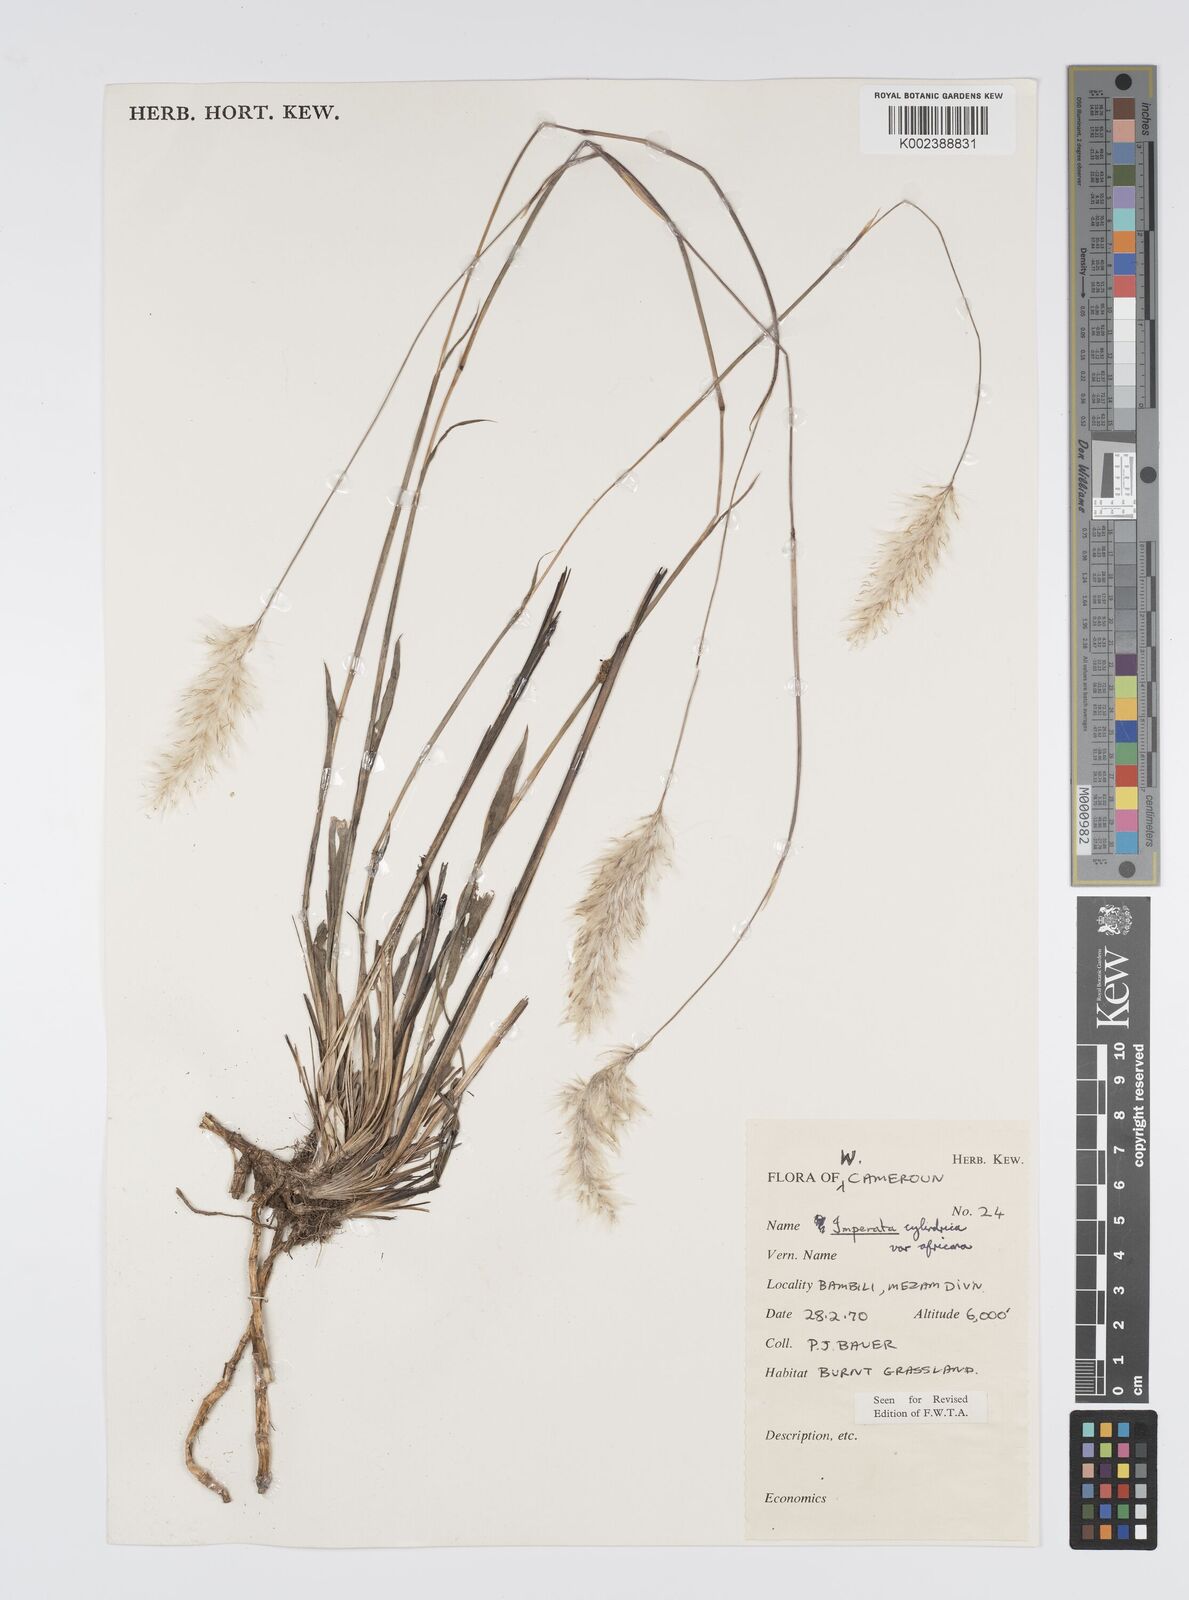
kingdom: Plantae
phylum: Tracheophyta
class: Liliopsida
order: Poales
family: Poaceae
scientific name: Poaceae
